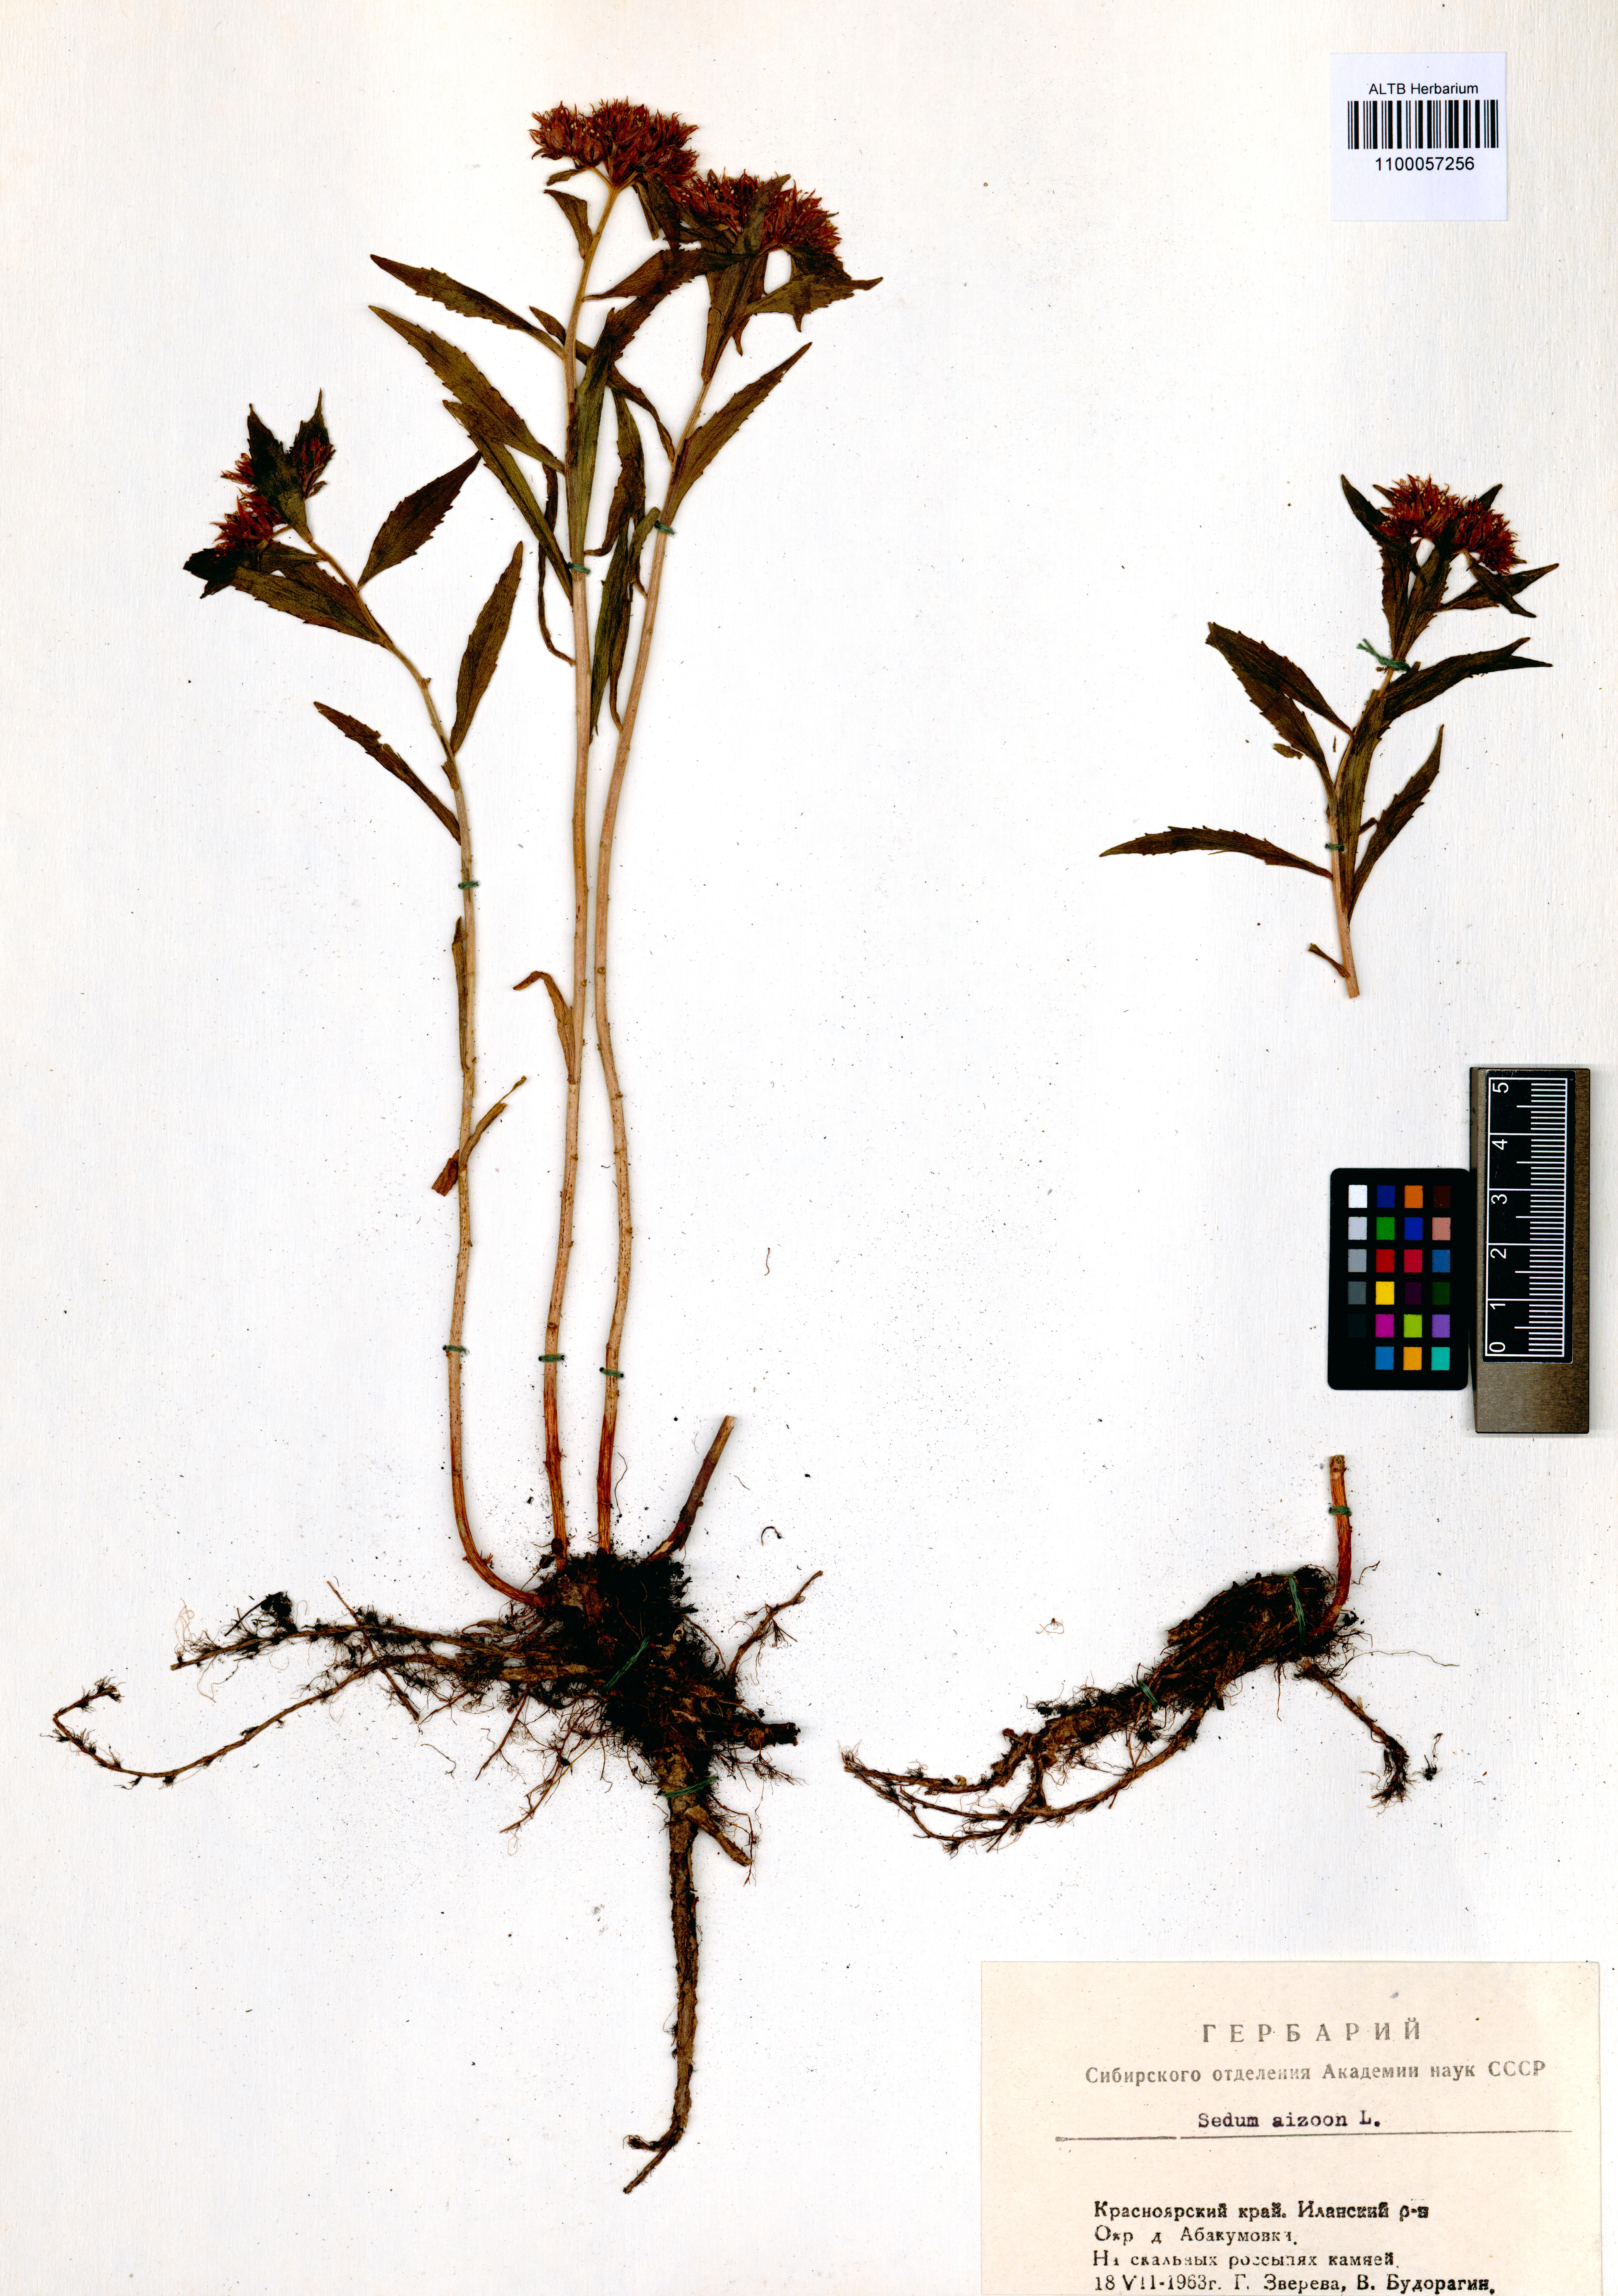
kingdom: Plantae
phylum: Tracheophyta
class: Magnoliopsida
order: Saxifragales
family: Crassulaceae
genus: Phedimus
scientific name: Phedimus aizoon
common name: Orpin aizoon
